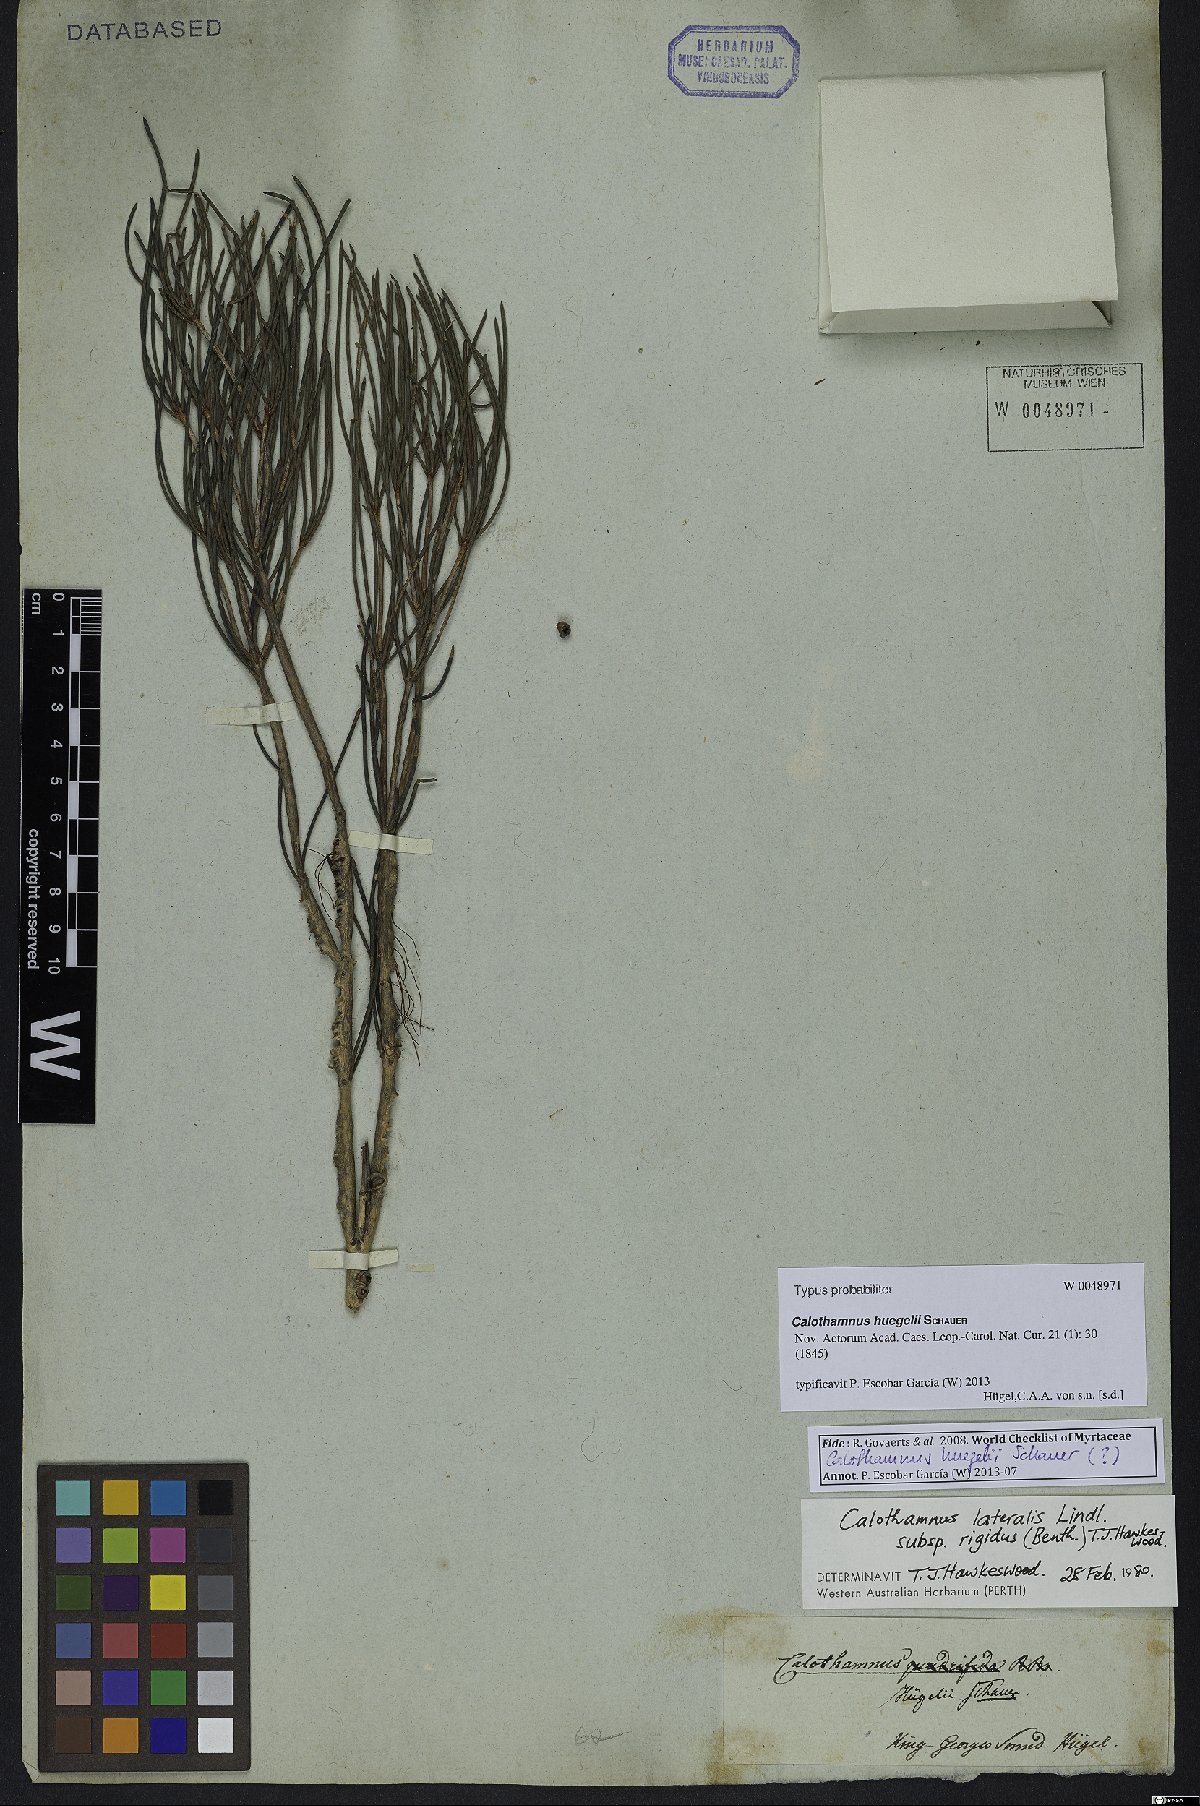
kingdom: Plantae
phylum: Tracheophyta
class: Magnoliopsida
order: Myrtales
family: Myrtaceae
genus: Melaleuca
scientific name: Melaleuca caroli-huegelii
